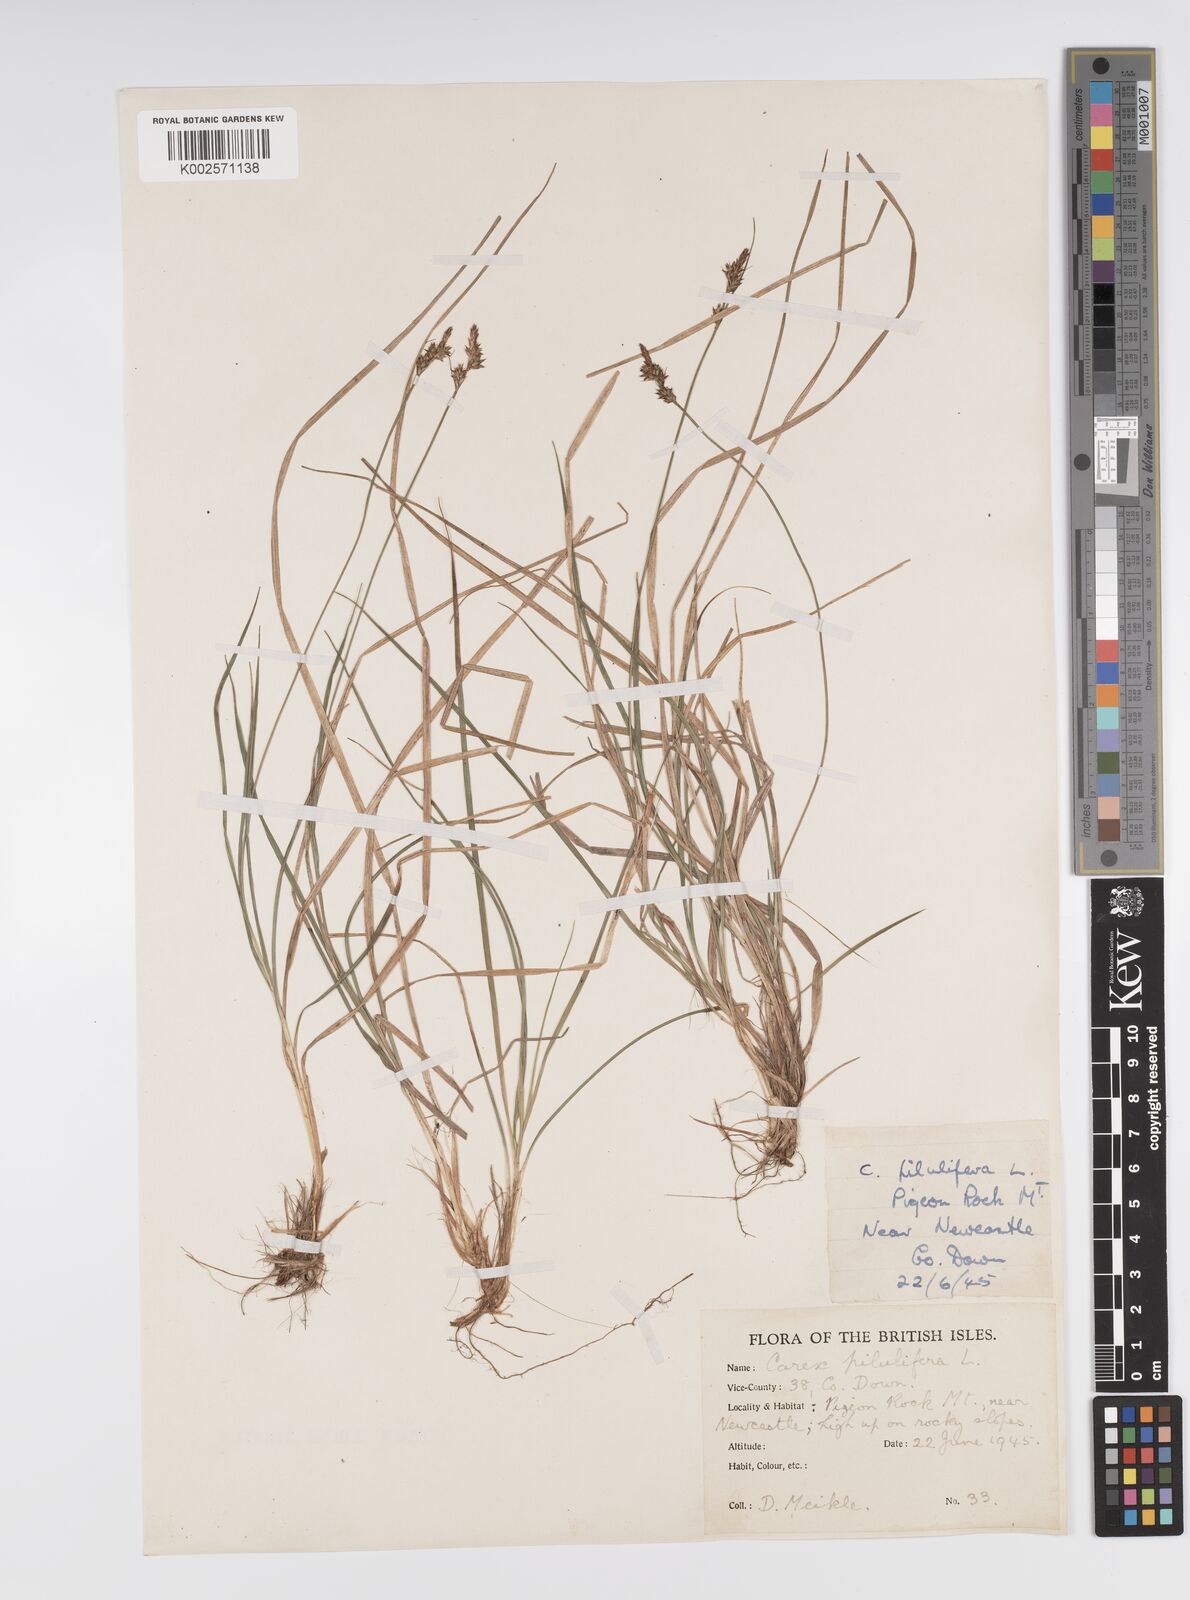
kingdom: Plantae
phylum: Tracheophyta
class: Liliopsida
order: Poales
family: Cyperaceae
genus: Carex
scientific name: Carex pilulifera
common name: Pill sedge
